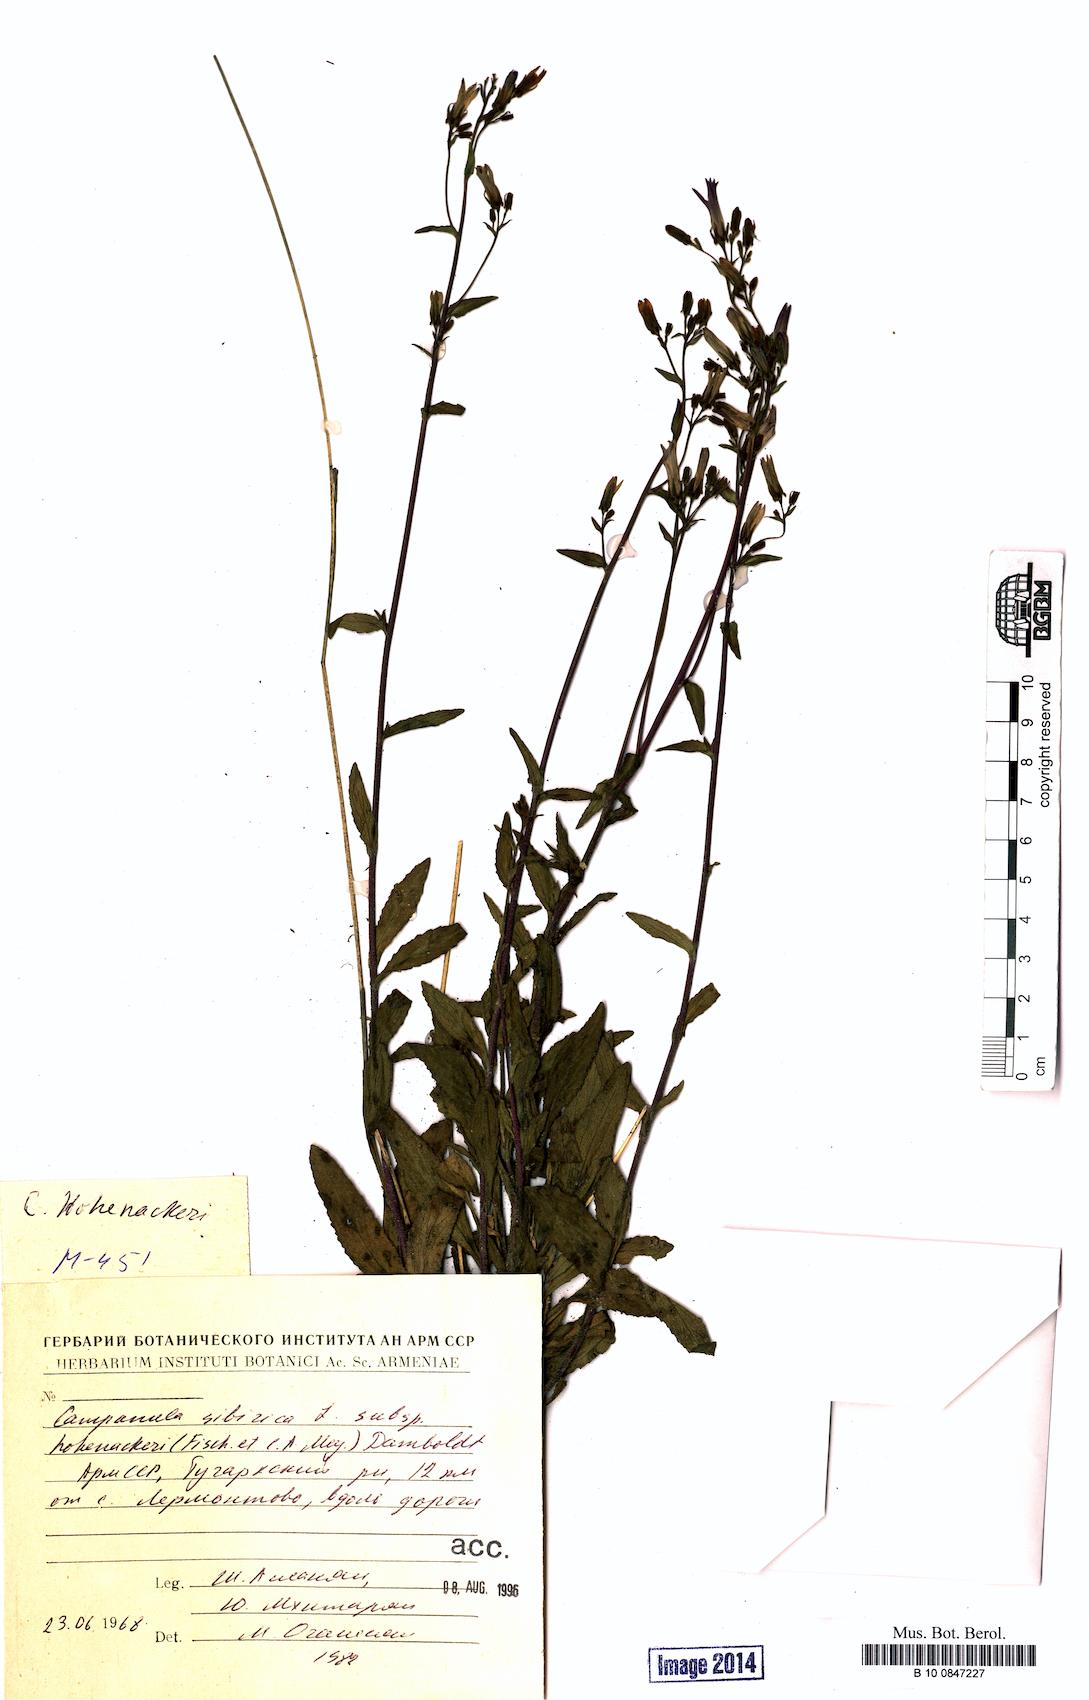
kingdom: Plantae
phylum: Tracheophyta
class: Magnoliopsida
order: Asterales
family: Campanulaceae
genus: Campanula
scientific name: Campanula sibirica
